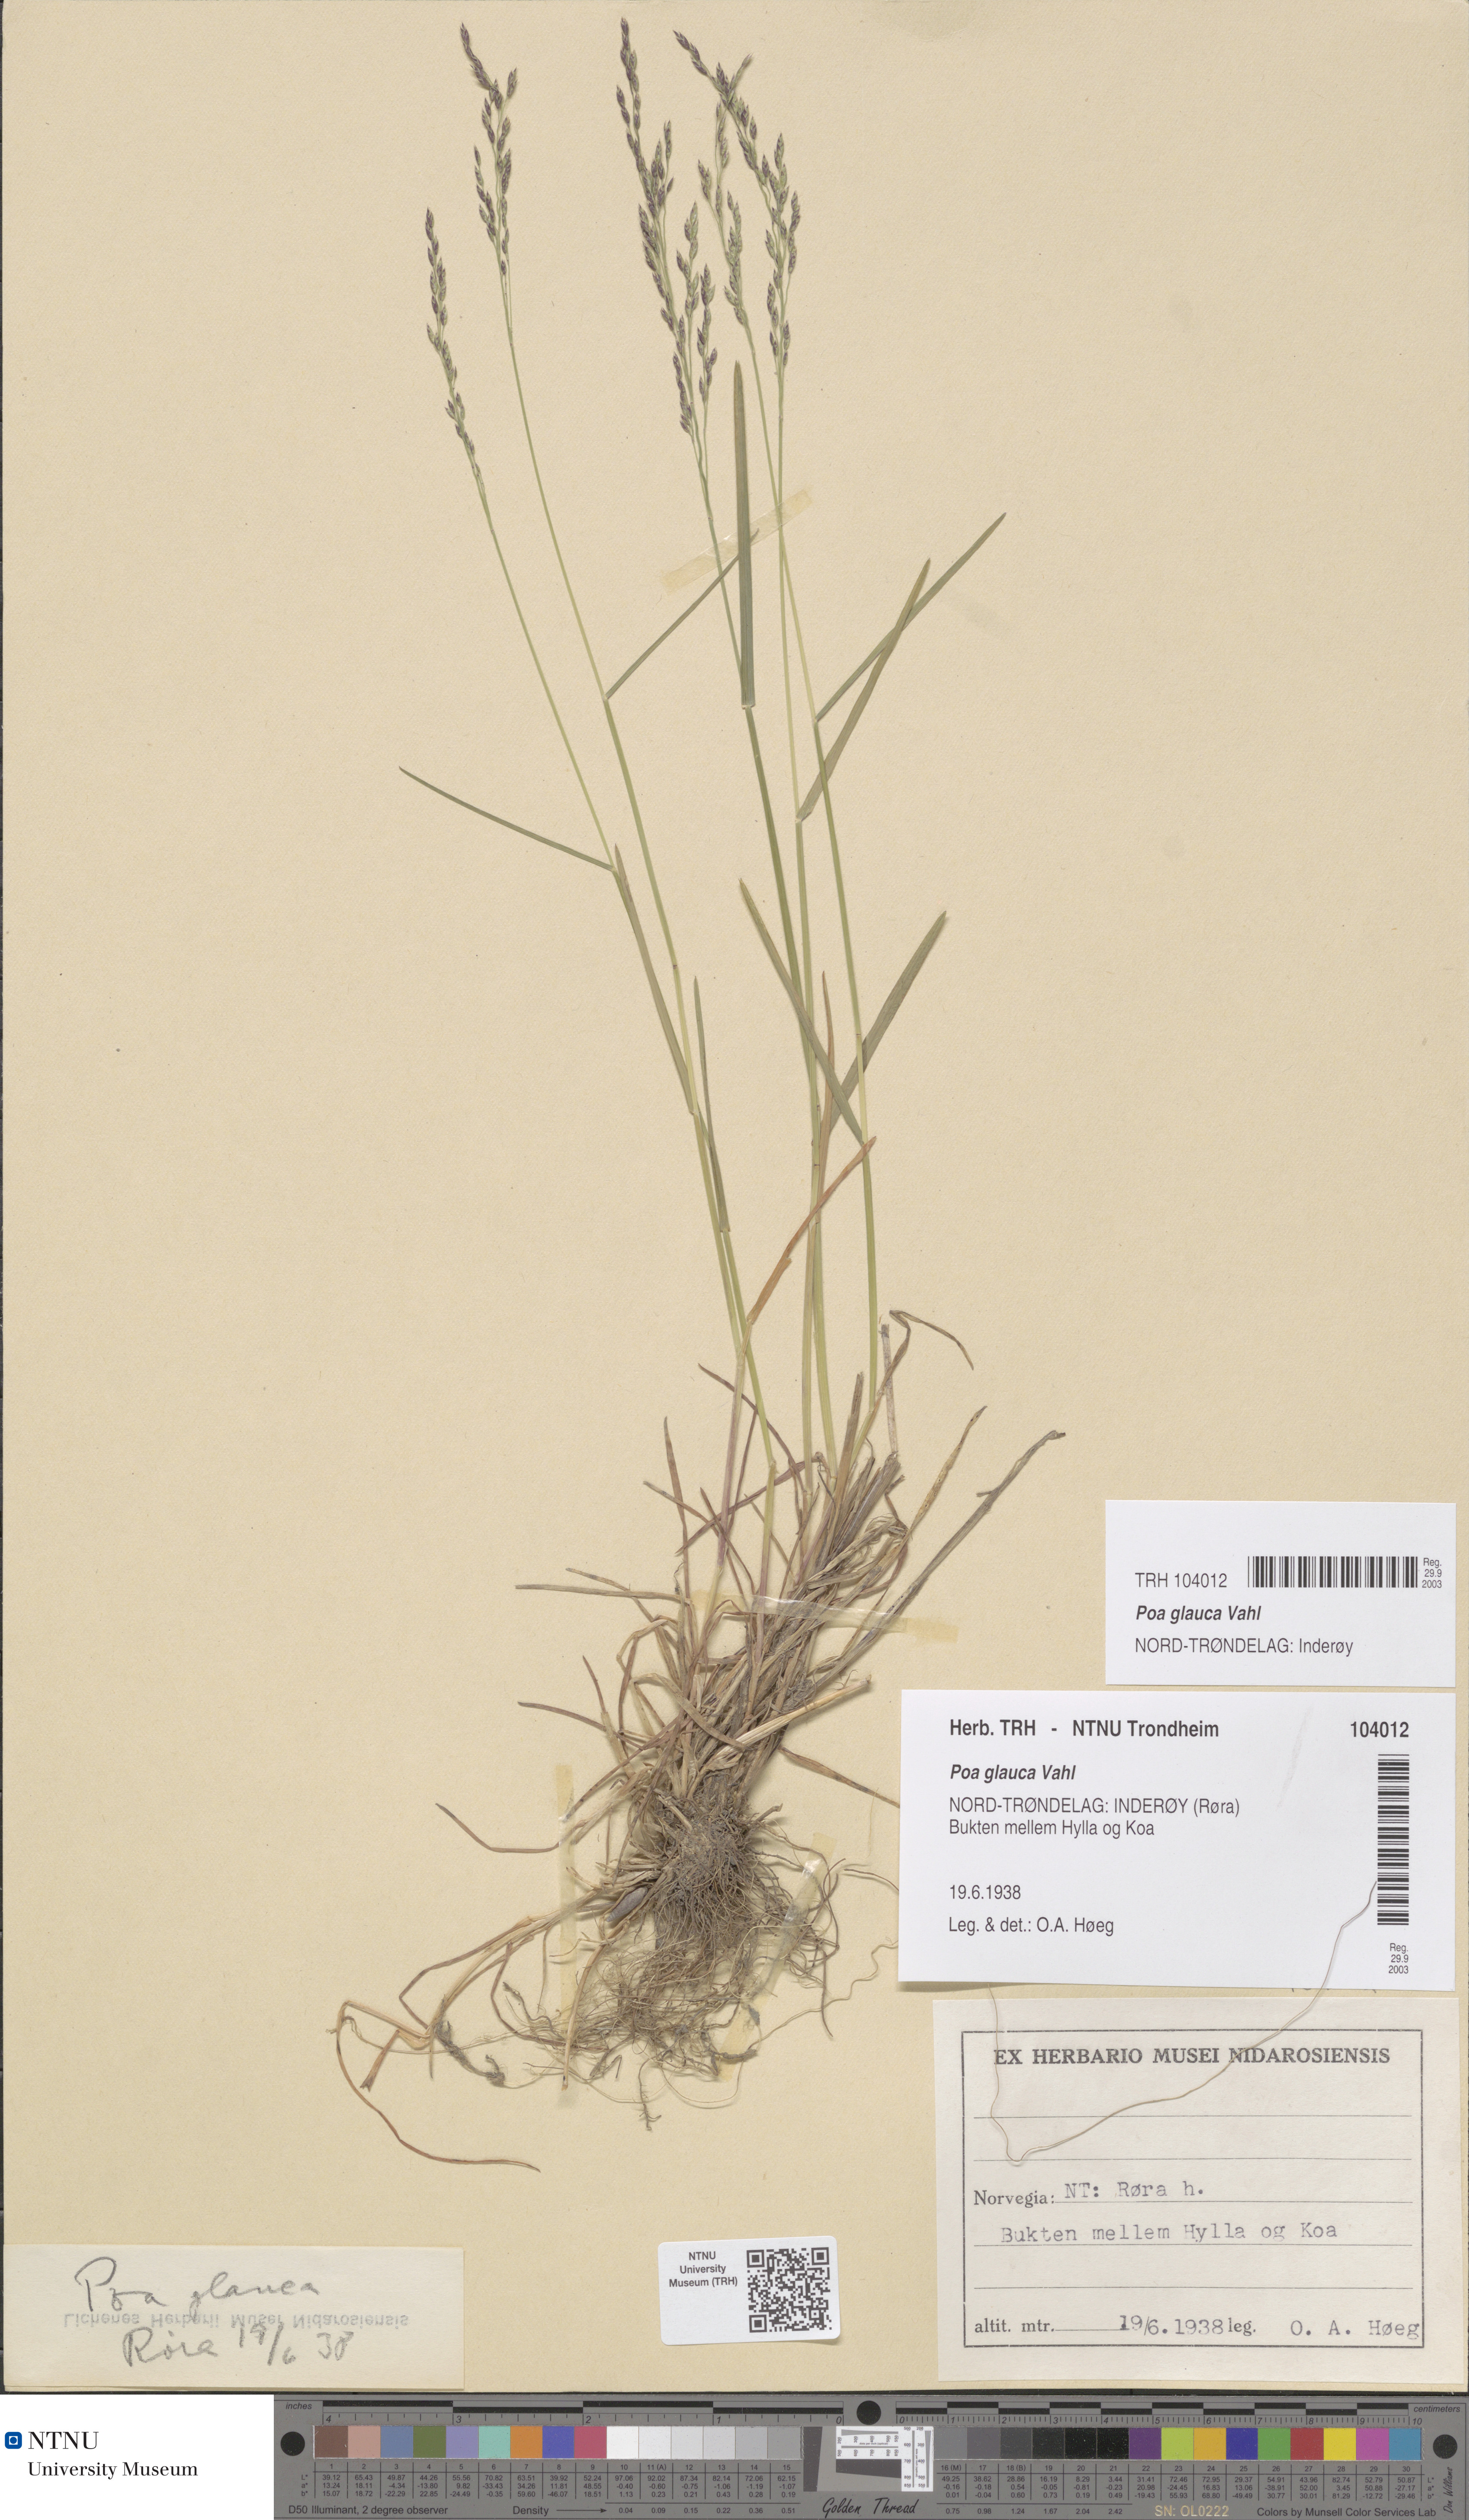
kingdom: Plantae
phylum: Tracheophyta
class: Liliopsida
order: Poales
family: Poaceae
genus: Poa
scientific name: Poa glauca
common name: Glaucous bluegrass
